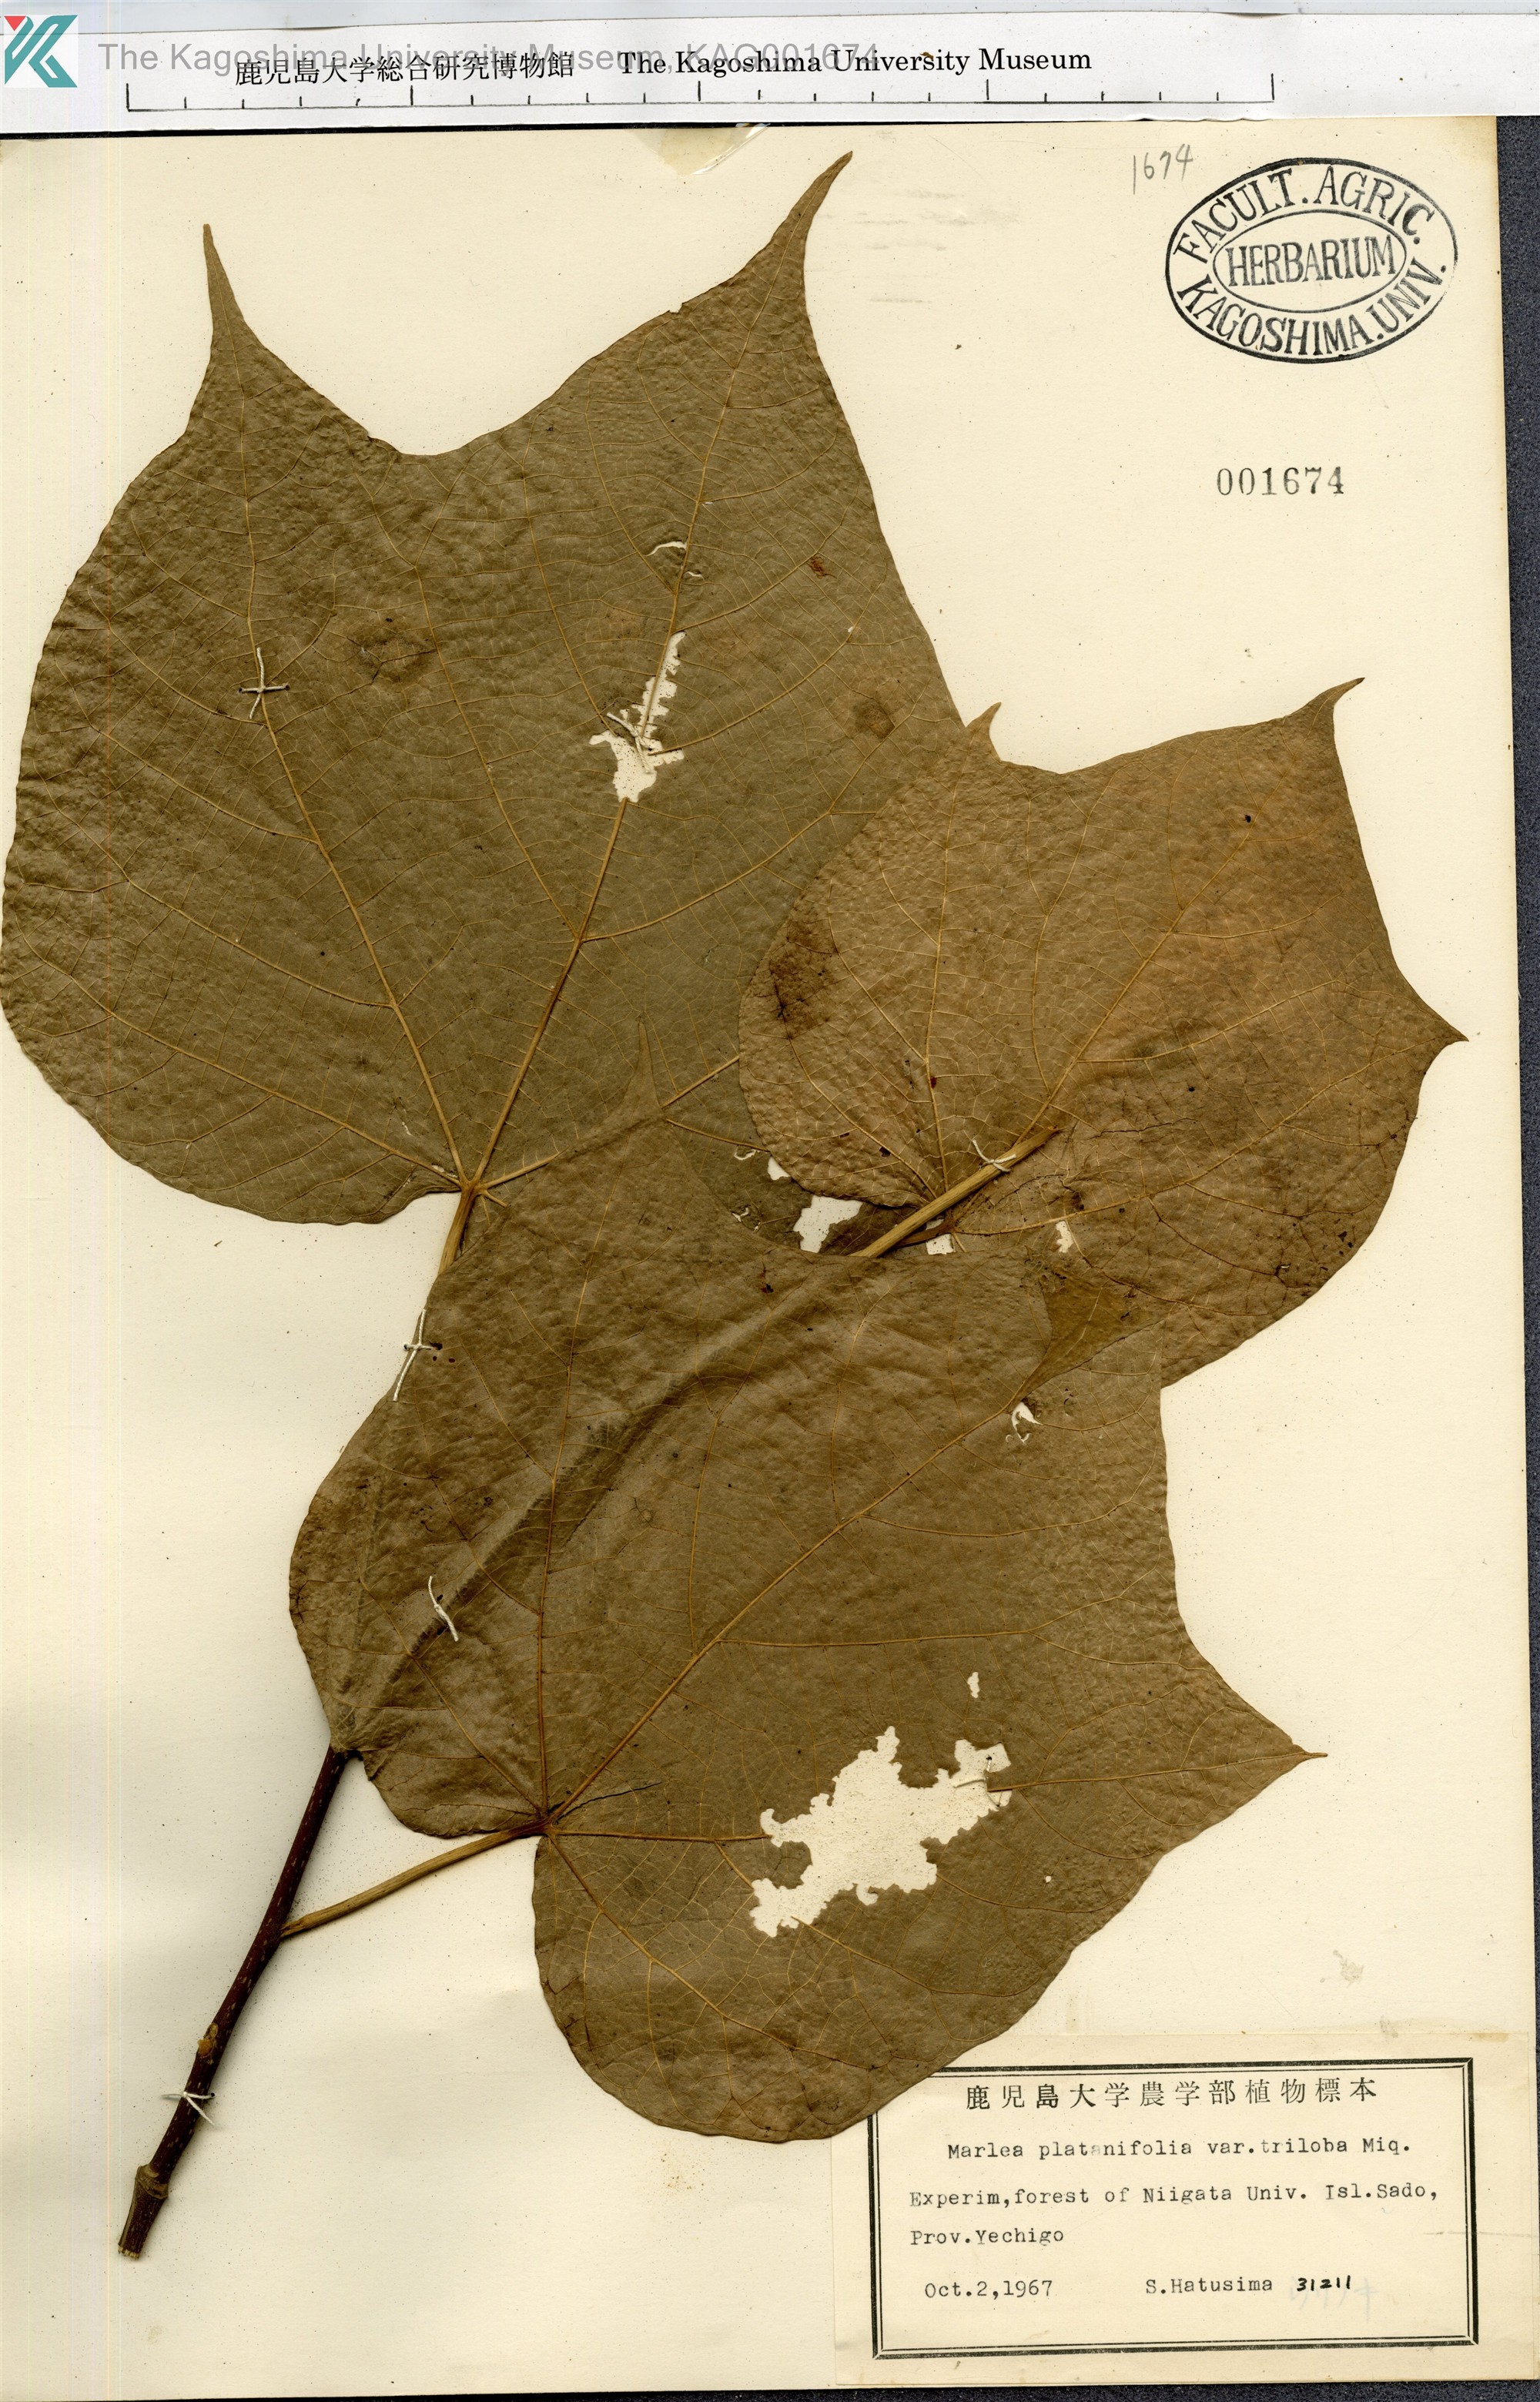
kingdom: Plantae
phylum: Tracheophyta
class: Magnoliopsida
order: Cornales
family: Cornaceae
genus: Alangium
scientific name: Alangium platanifolium
